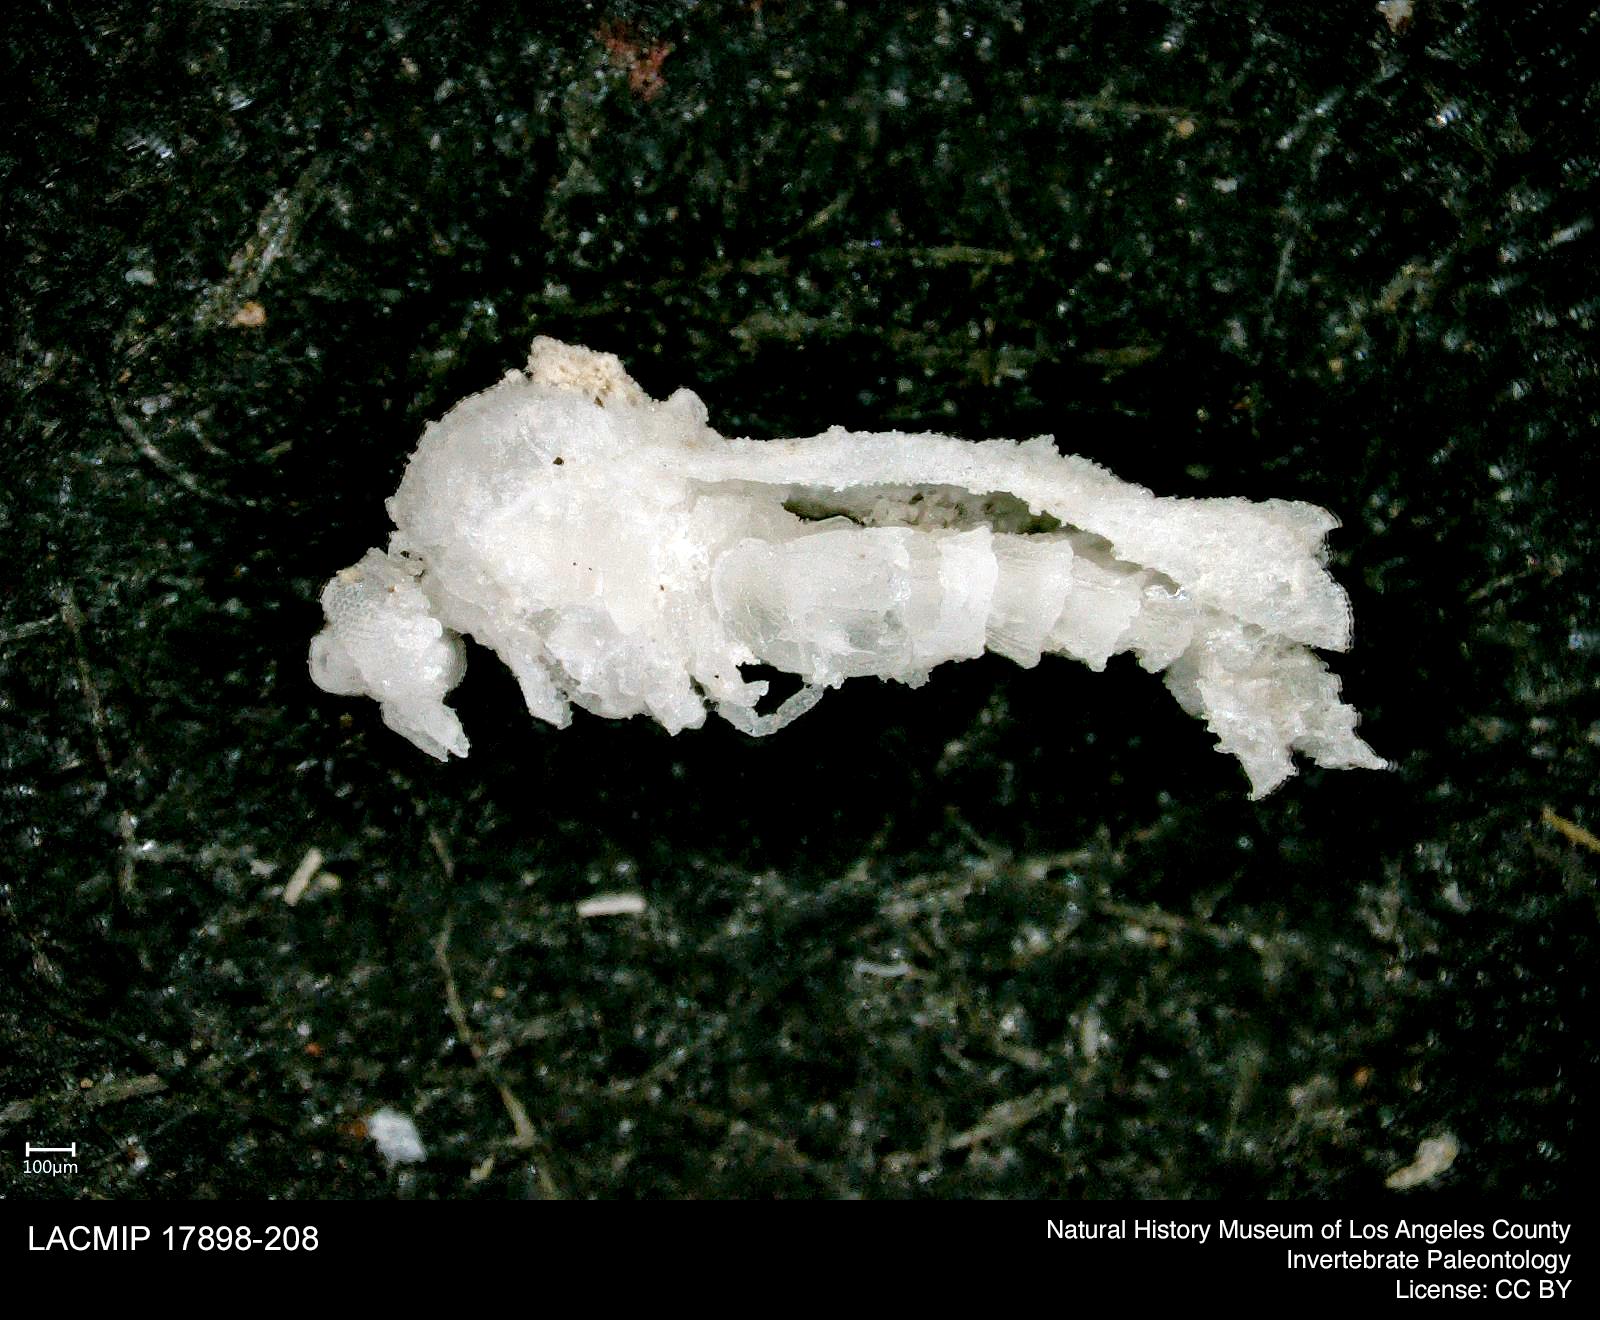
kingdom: Animalia
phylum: Arthropoda
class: Insecta
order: Diptera
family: Ceratopogonidae
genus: Dasyhelea
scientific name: Dasyhelea australia
